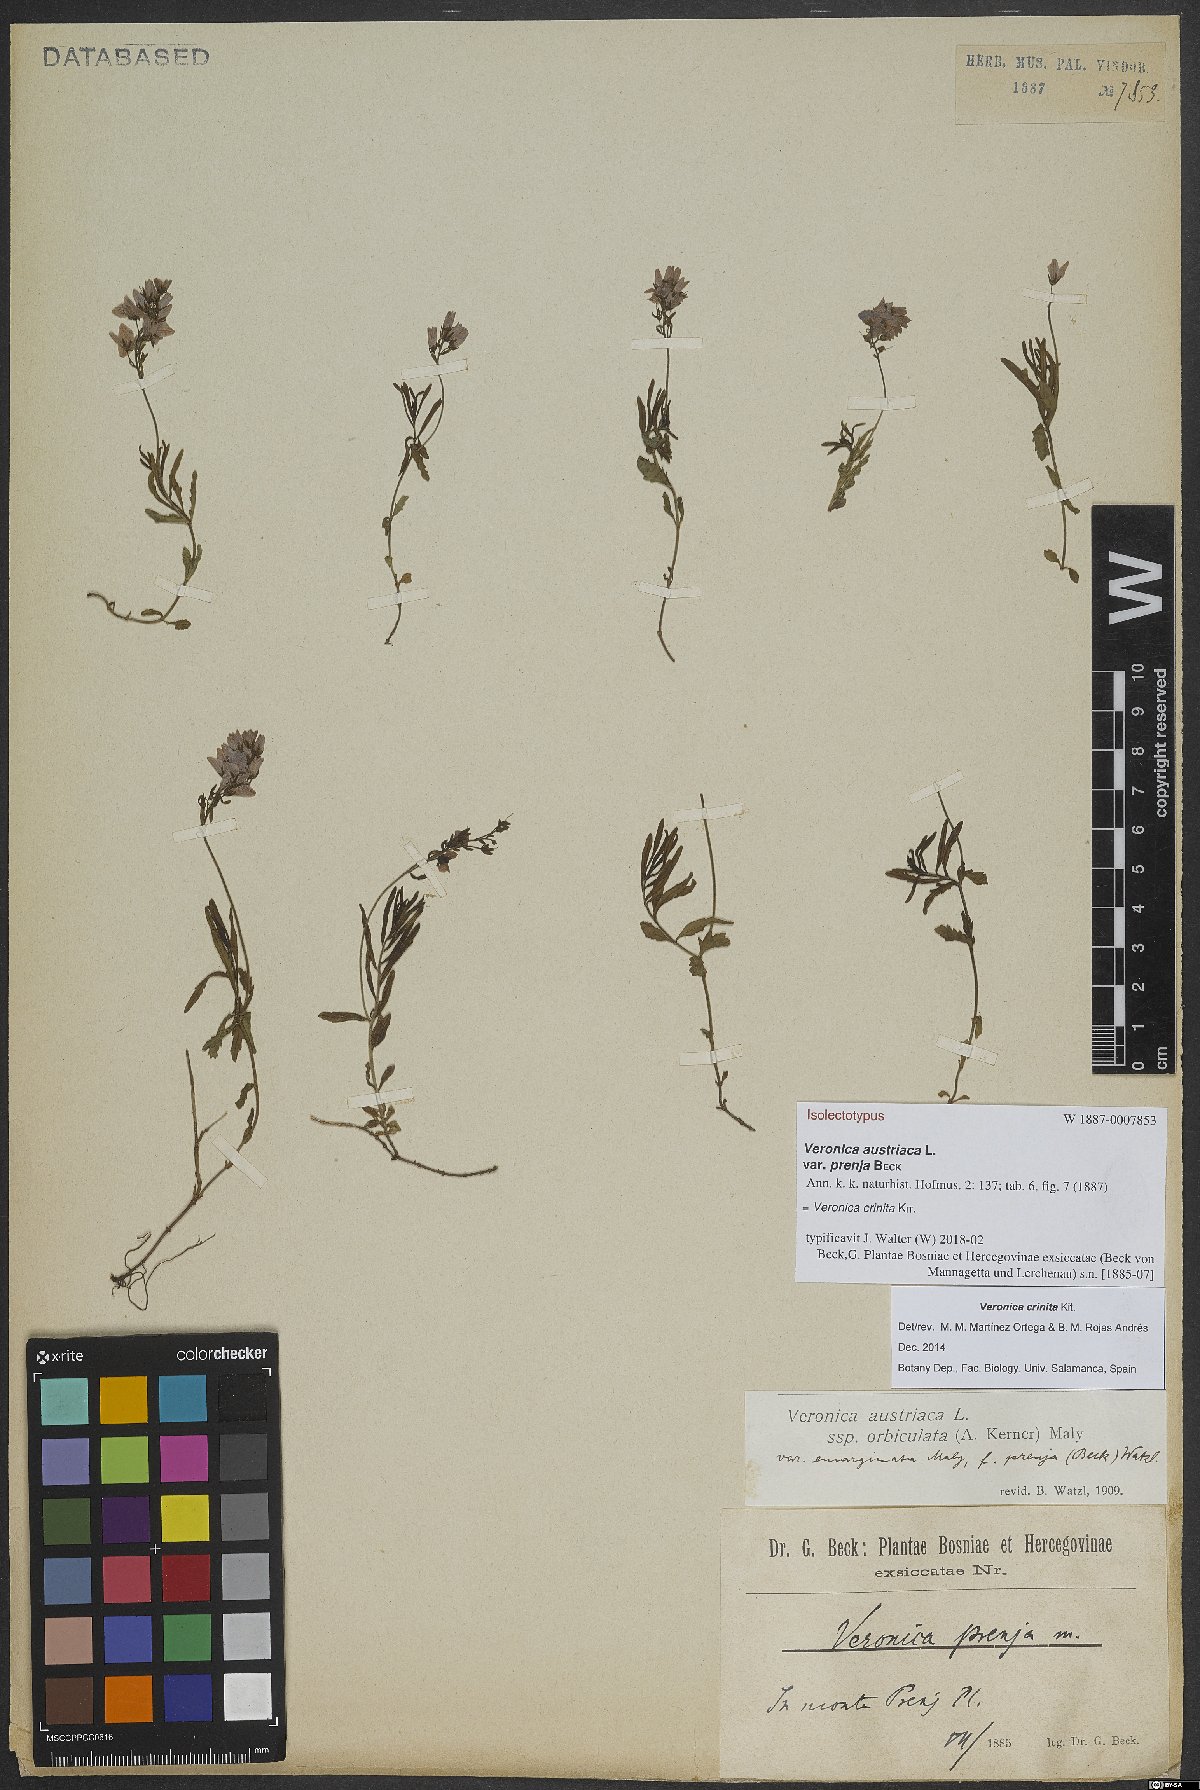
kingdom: Plantae
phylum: Tracheophyta
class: Magnoliopsida
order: Lamiales
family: Plantaginaceae
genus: Veronica
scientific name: Veronica teucrium
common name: Large speedwell
